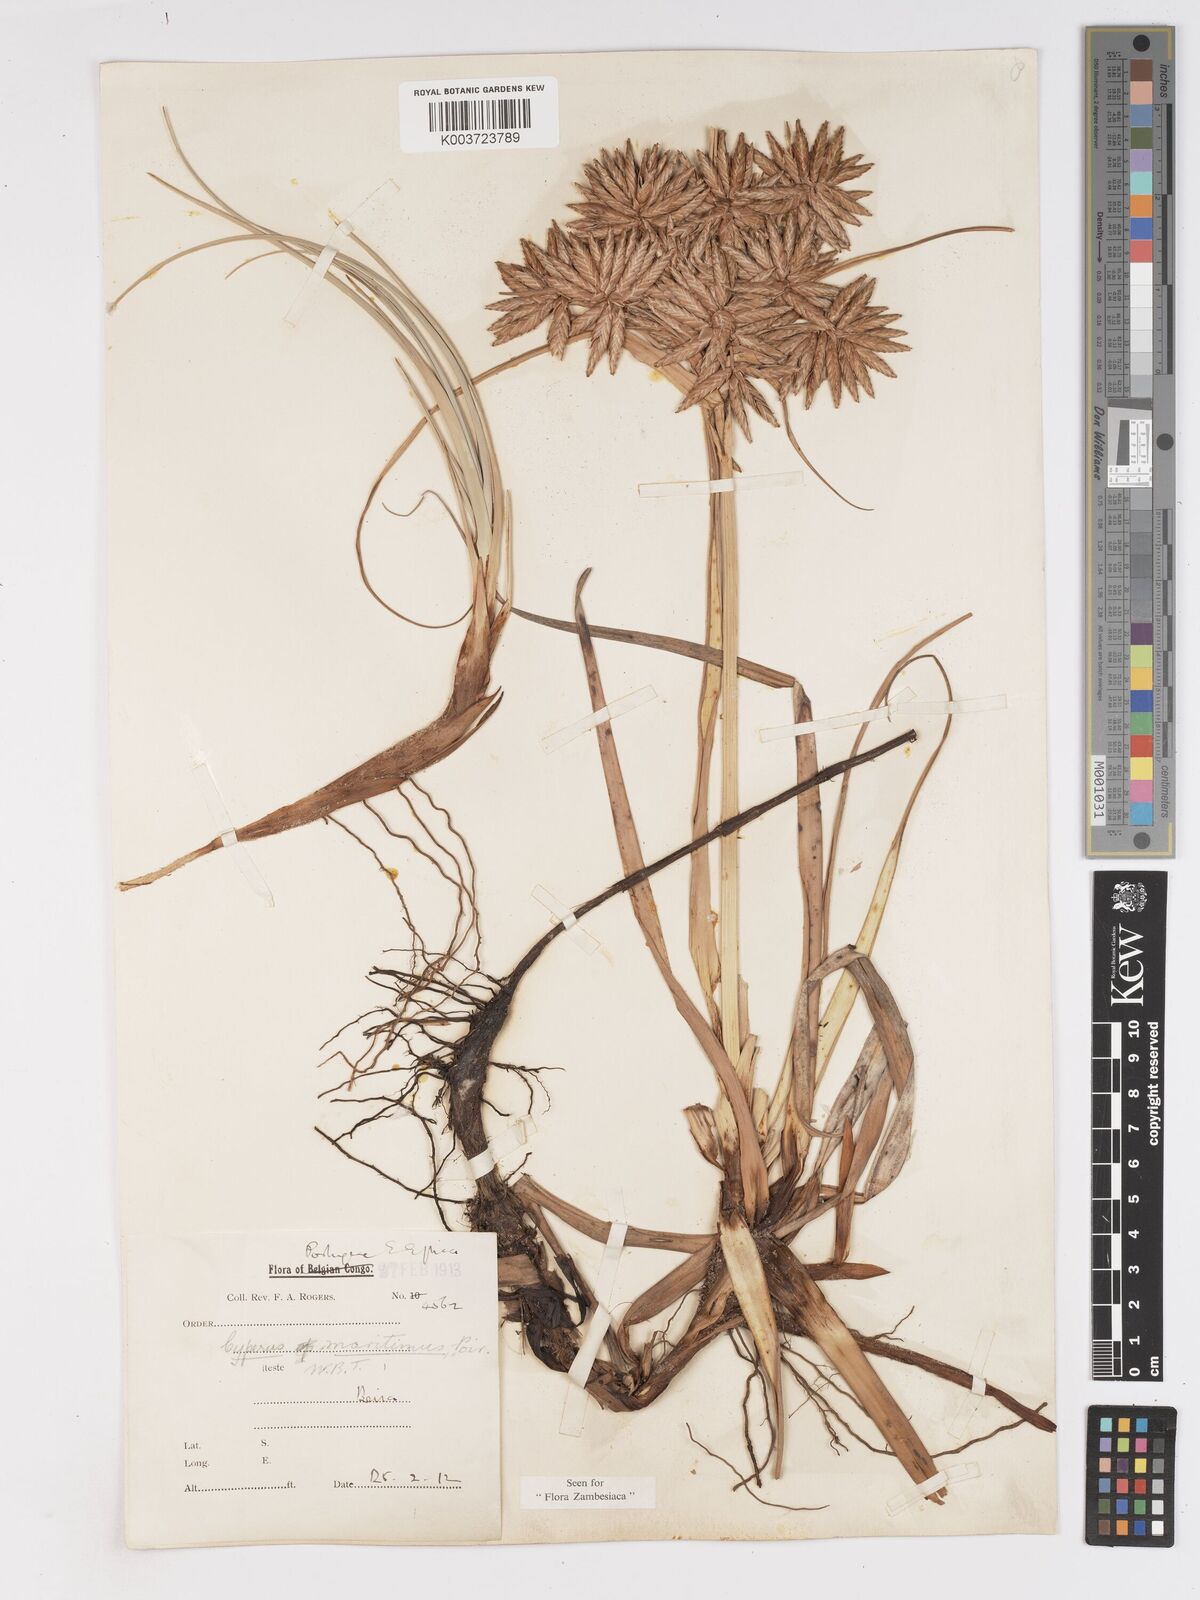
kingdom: Plantae
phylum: Tracheophyta
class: Liliopsida
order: Poales
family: Cyperaceae
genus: Cyperus
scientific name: Cyperus crassipes
